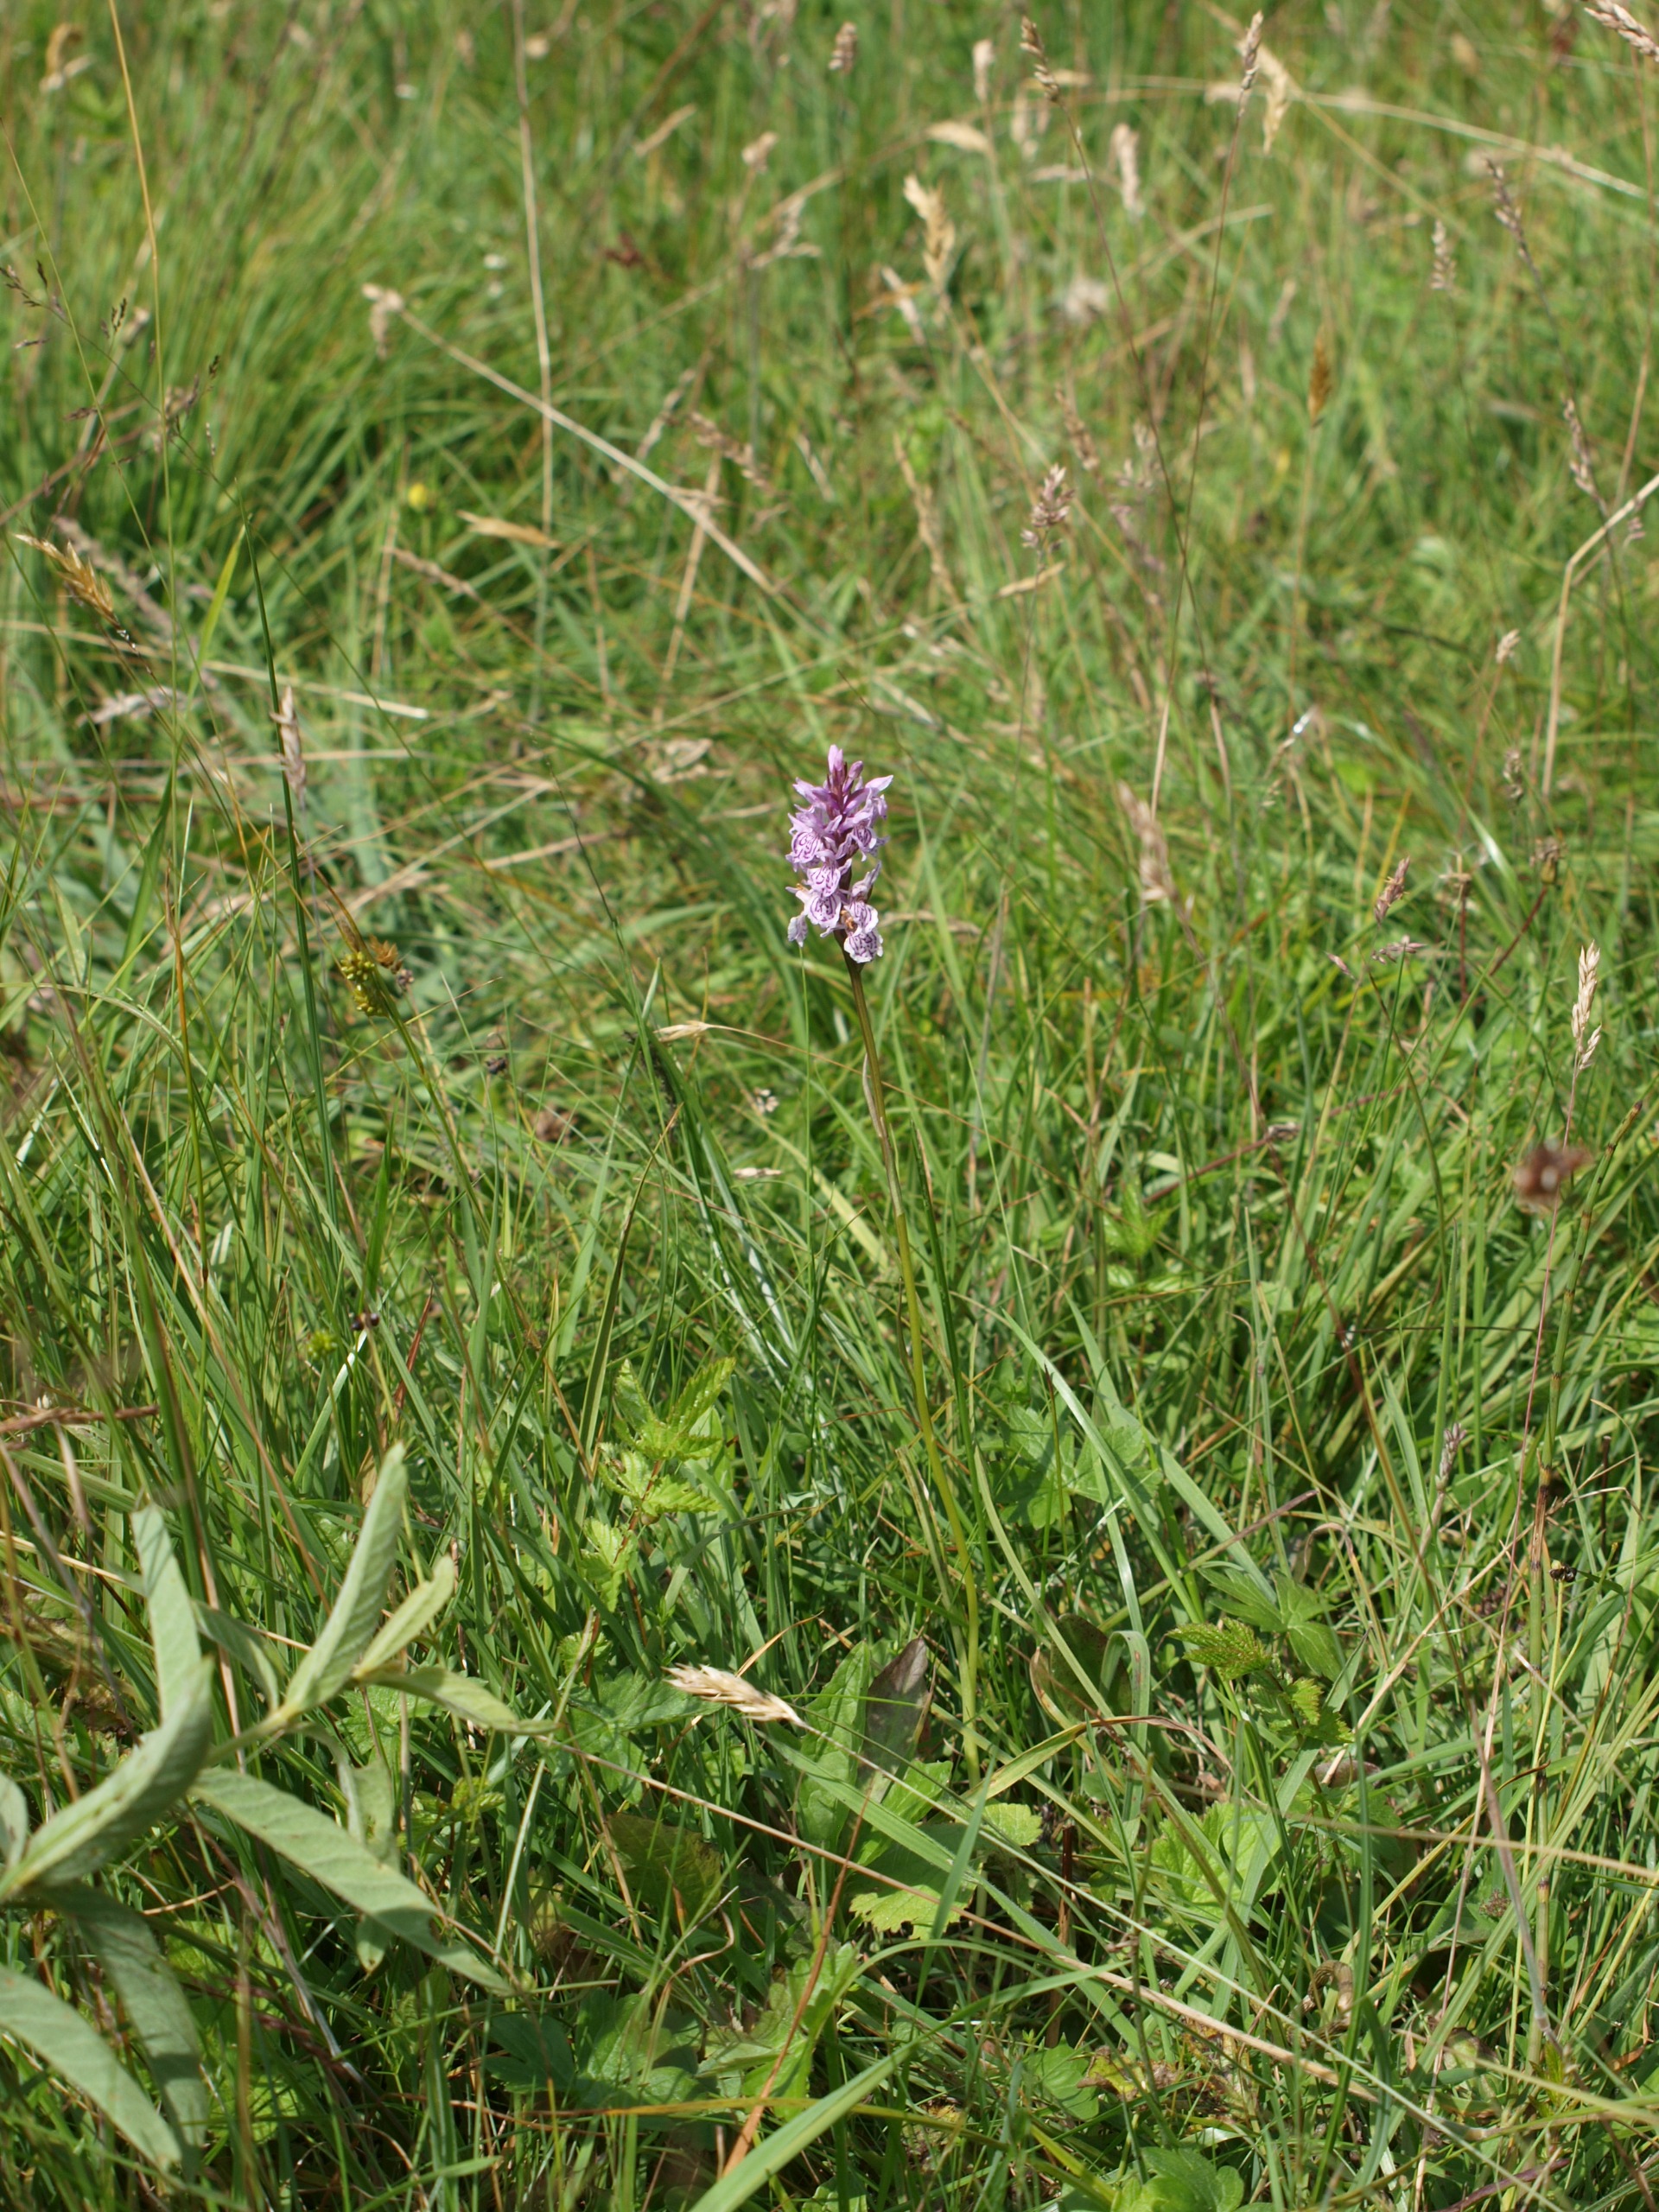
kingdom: Plantae
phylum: Tracheophyta
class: Liliopsida
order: Asparagales
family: Orchidaceae
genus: Dactylorhiza
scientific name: Dactylorhiza maculata
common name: Plettet gøgeurt
